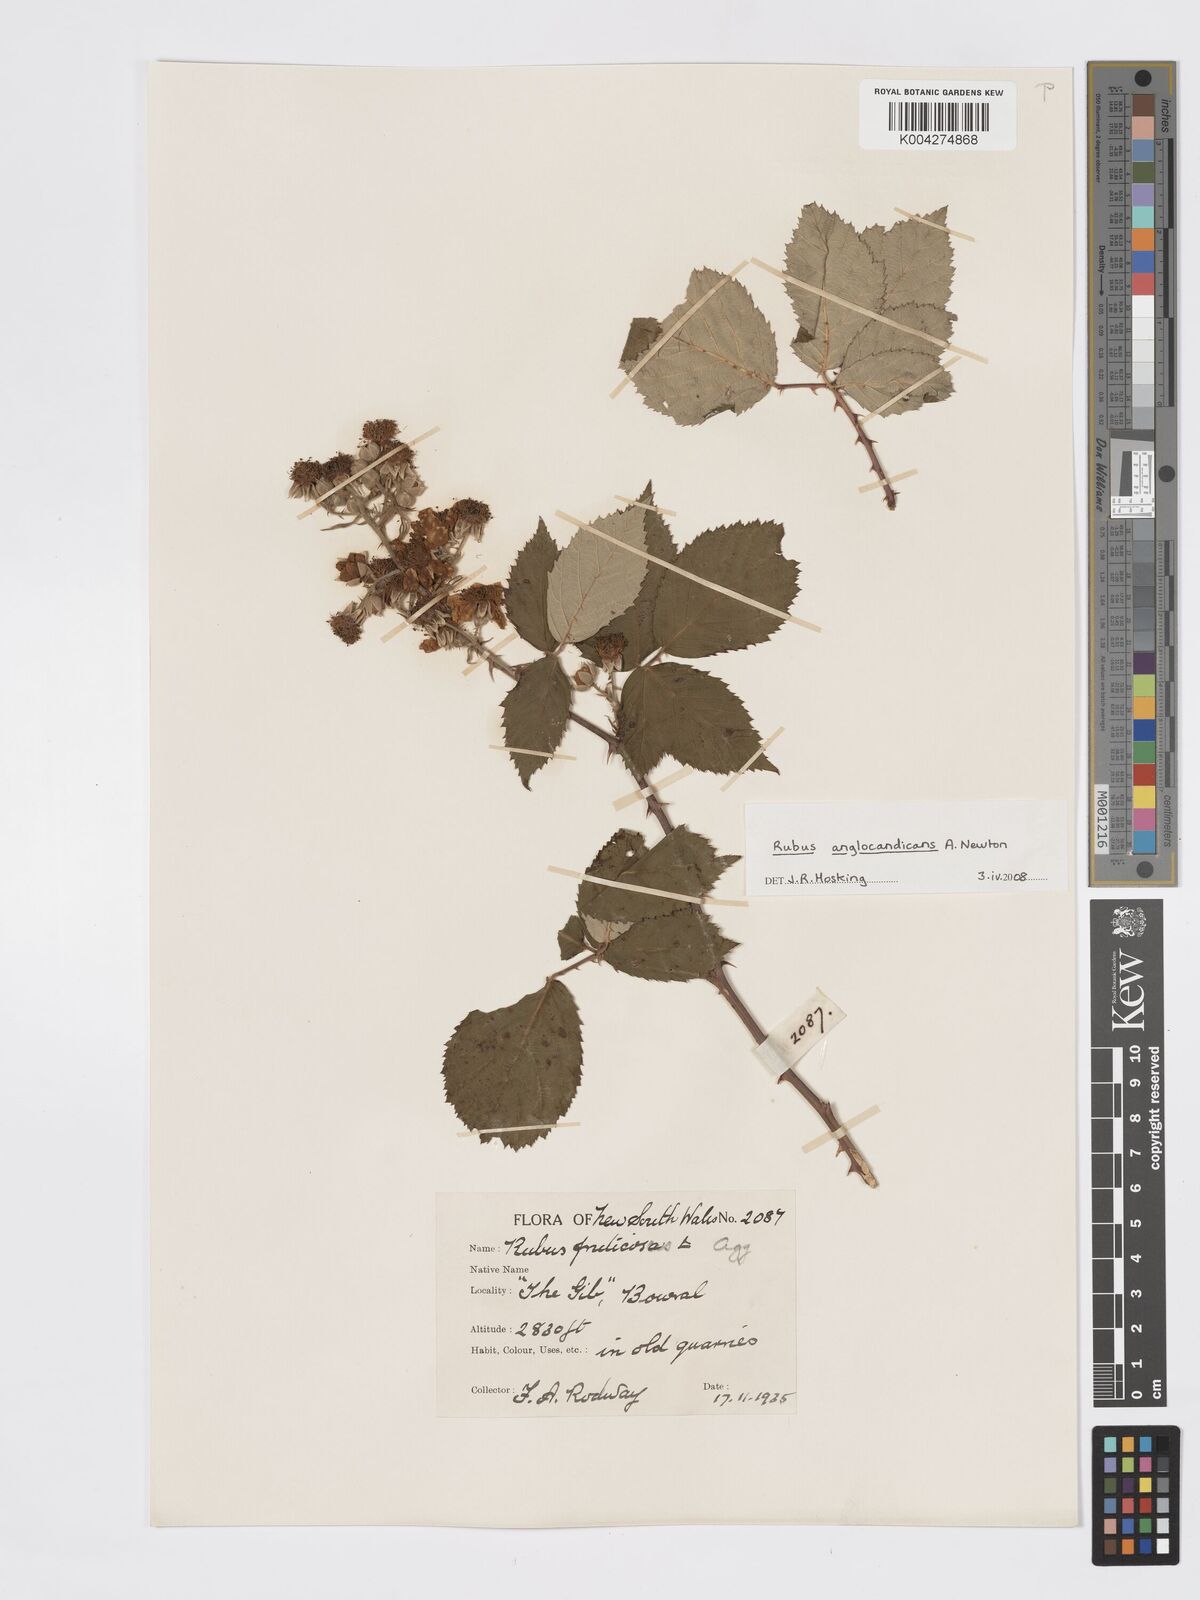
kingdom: Plantae
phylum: Tracheophyta
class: Magnoliopsida
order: Rosales
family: Rosaceae
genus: Rubus
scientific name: Rubus anglocandicans
